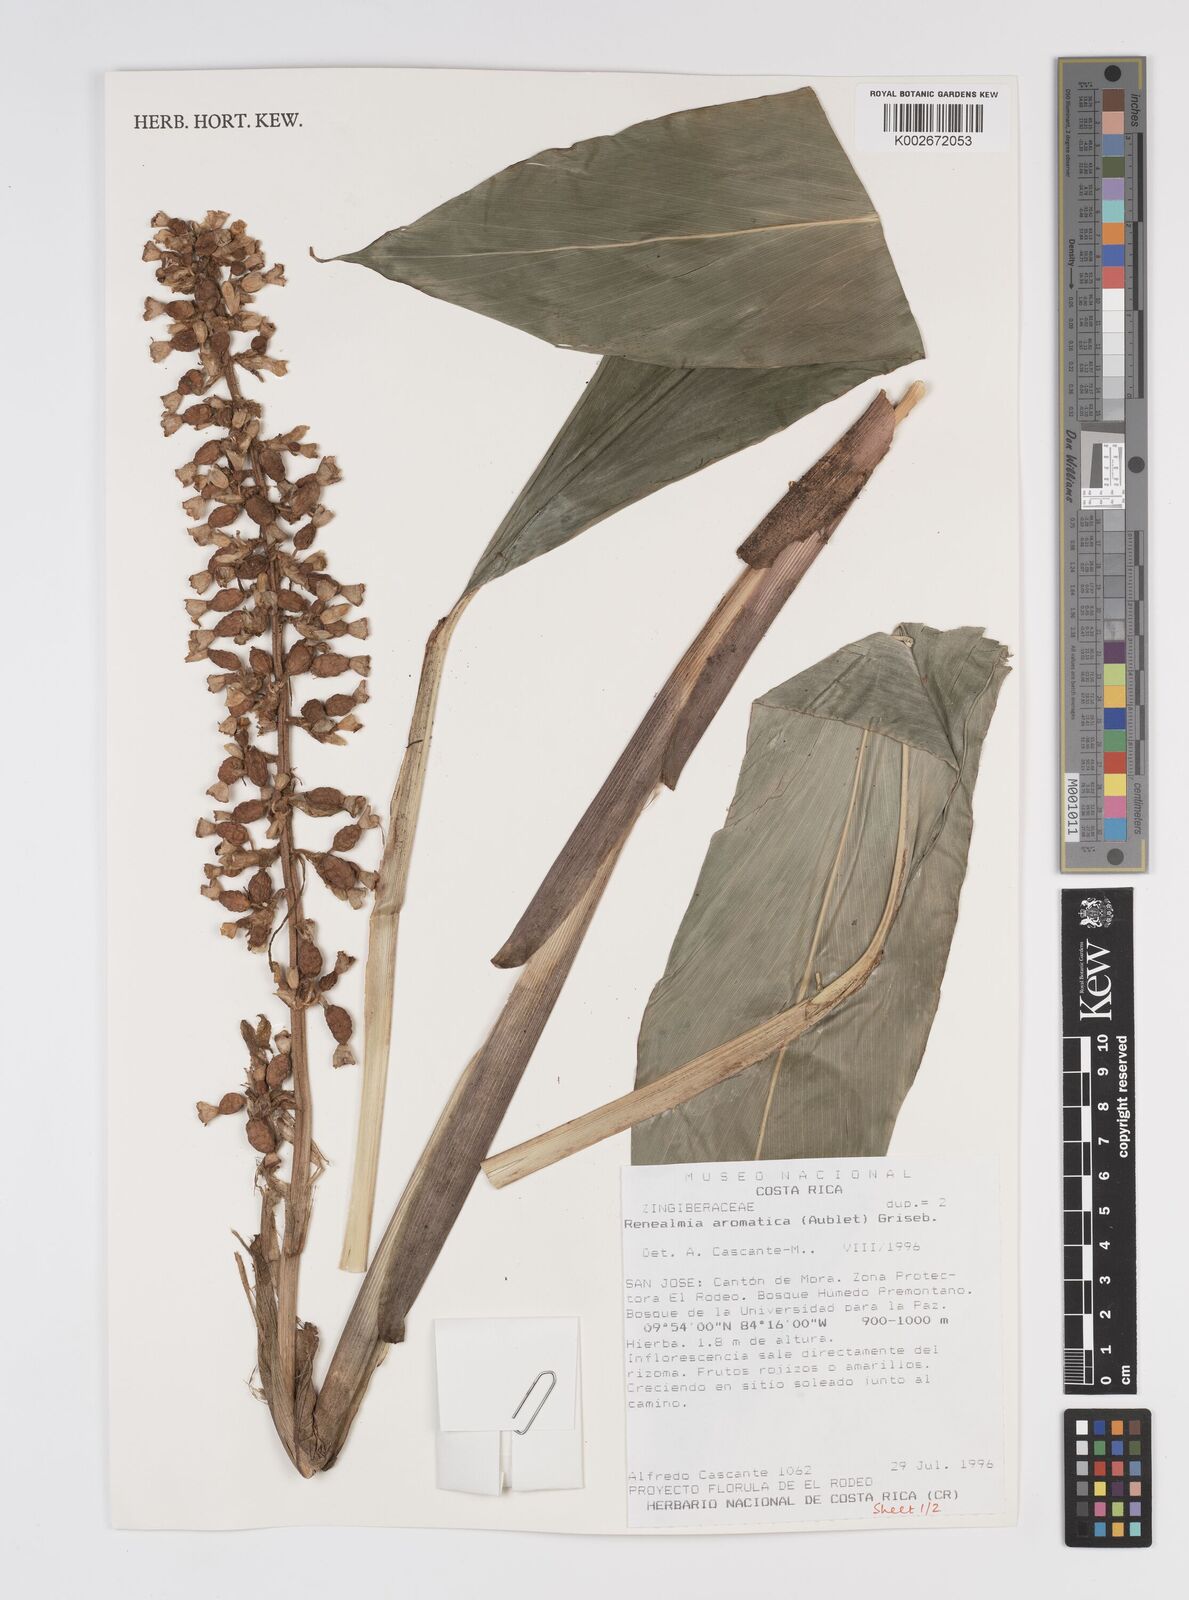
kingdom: Plantae
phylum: Tracheophyta
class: Liliopsida
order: Zingiberales
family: Zingiberaceae
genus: Renealmia
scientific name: Renealmia aromatica
